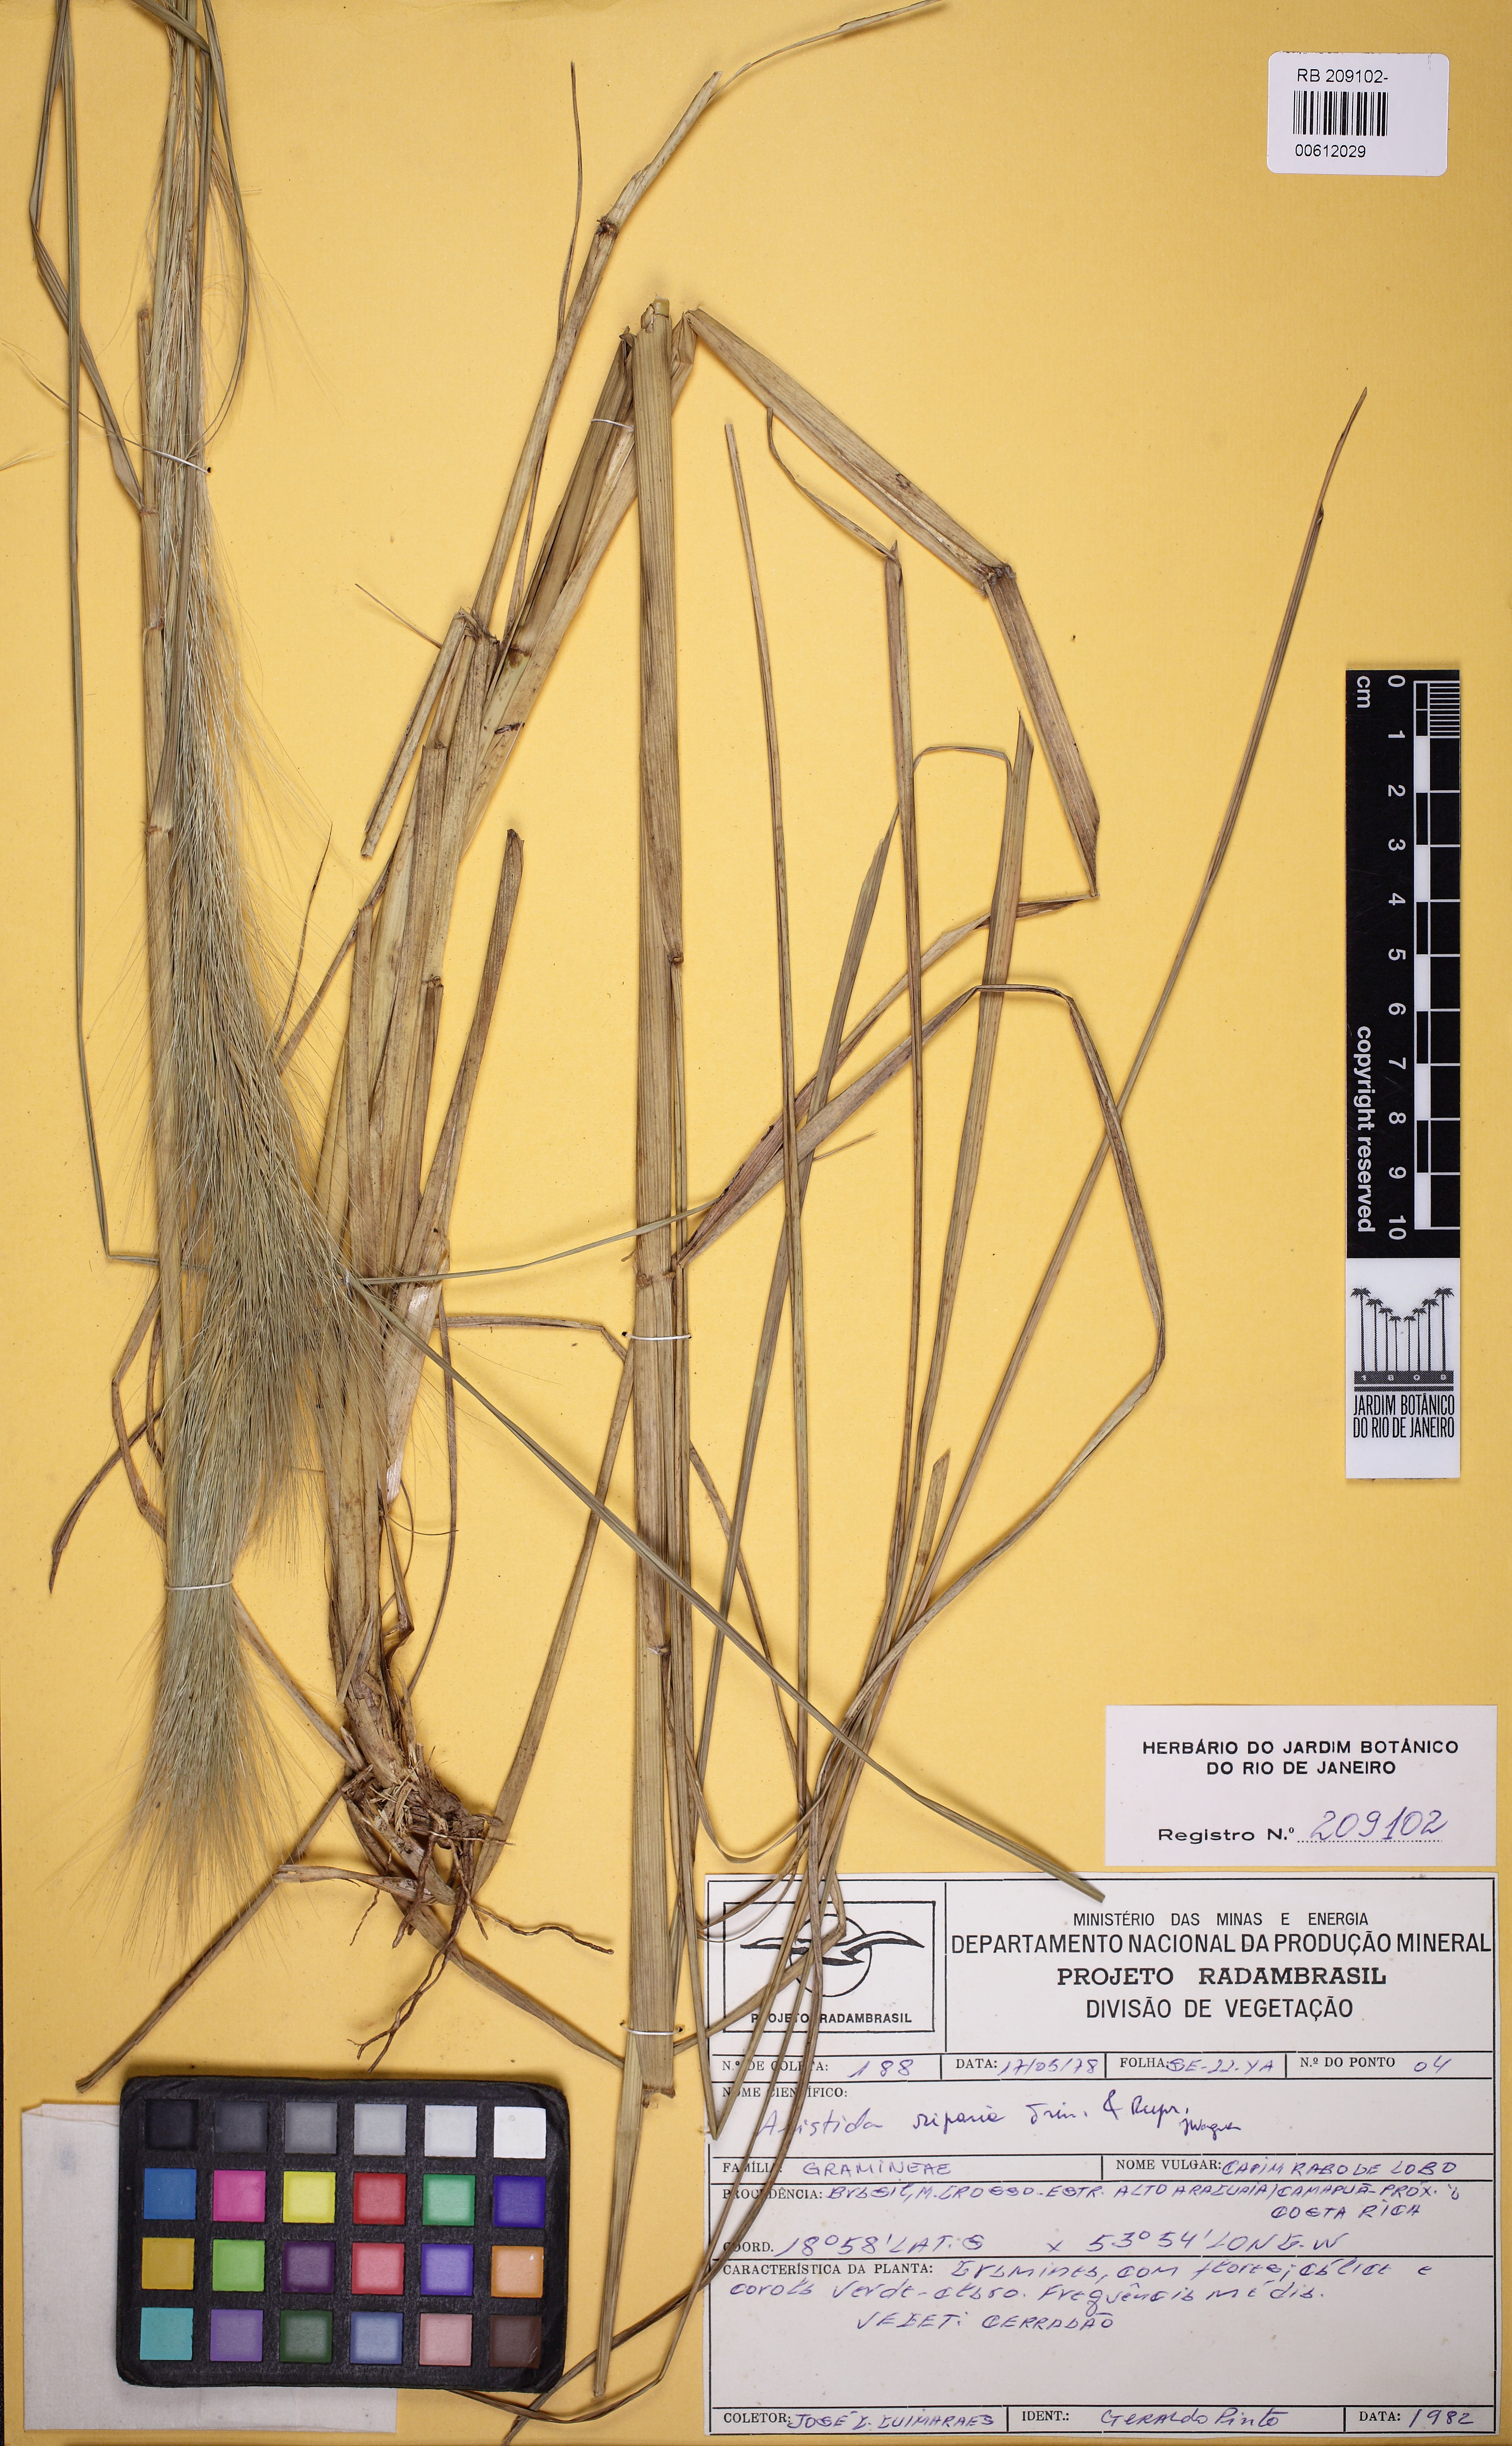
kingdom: Plantae
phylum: Tracheophyta
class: Liliopsida
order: Poales
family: Poaceae
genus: Aristida
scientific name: Aristida riparia
